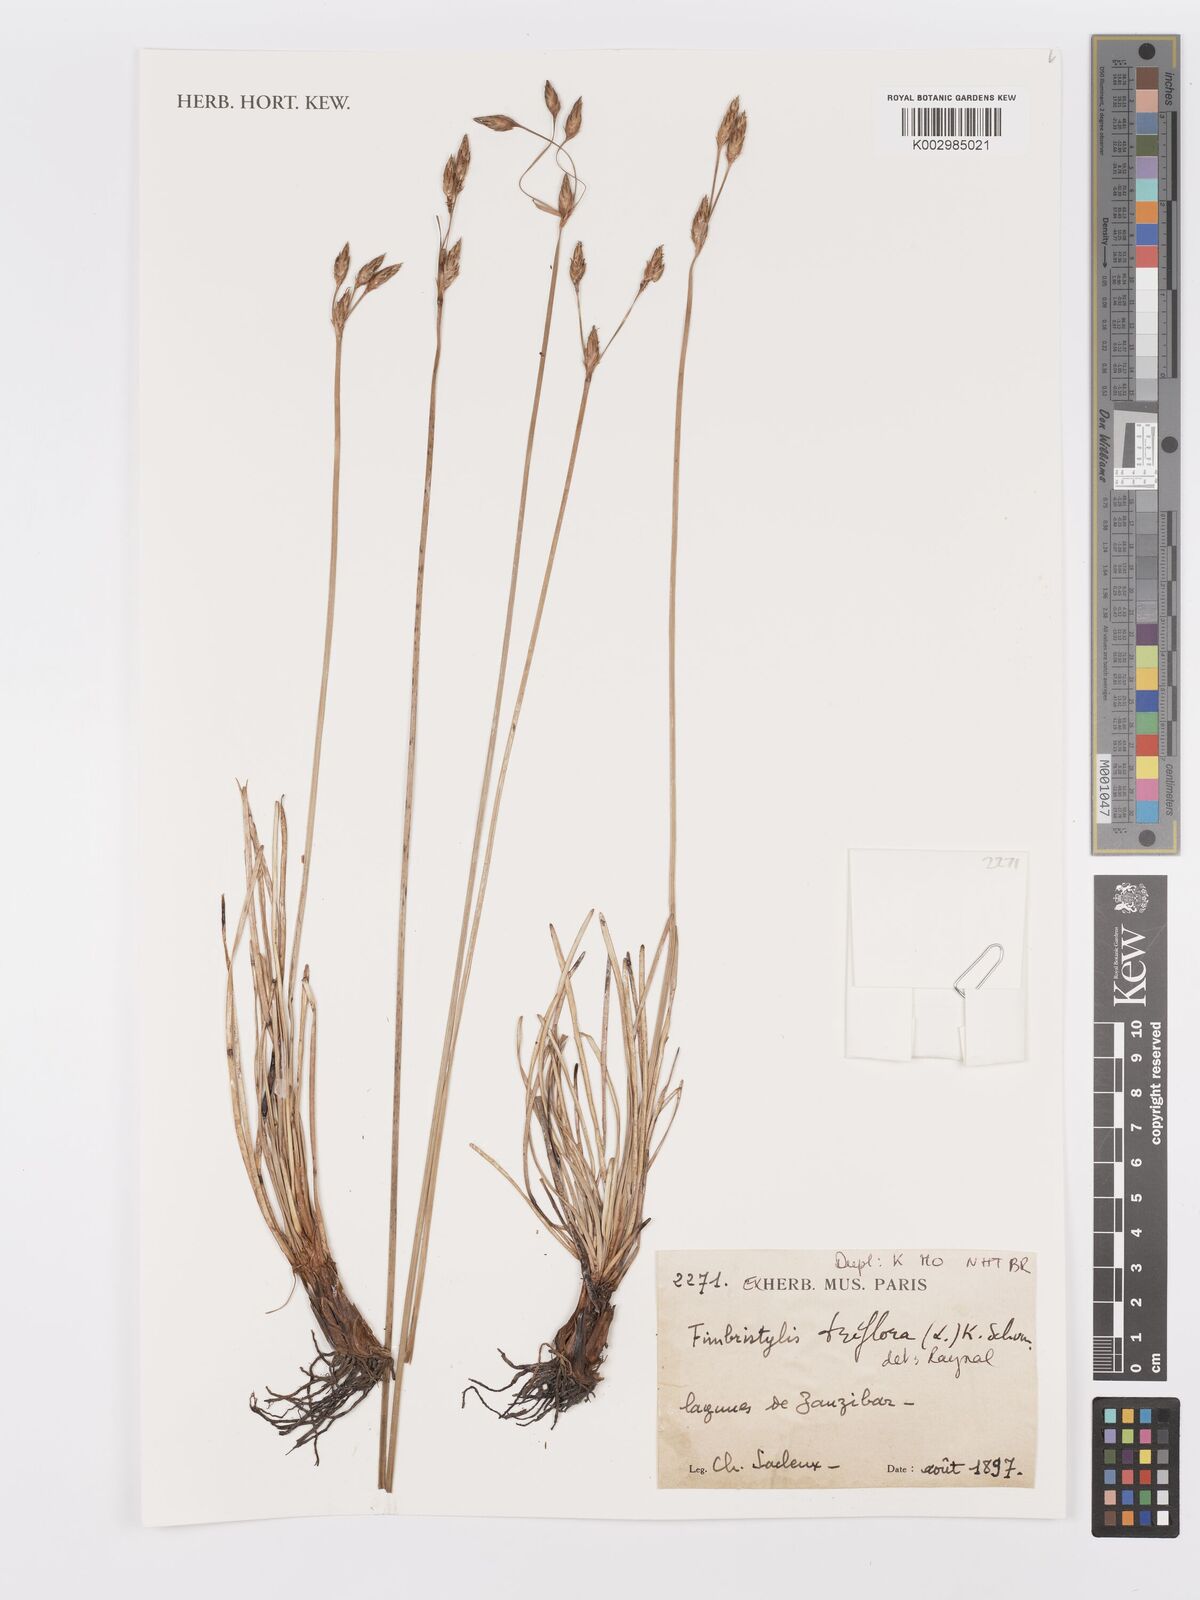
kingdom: Plantae
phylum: Tracheophyta
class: Liliopsida
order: Poales
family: Cyperaceae
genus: Abildgaardia
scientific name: Abildgaardia triflora
